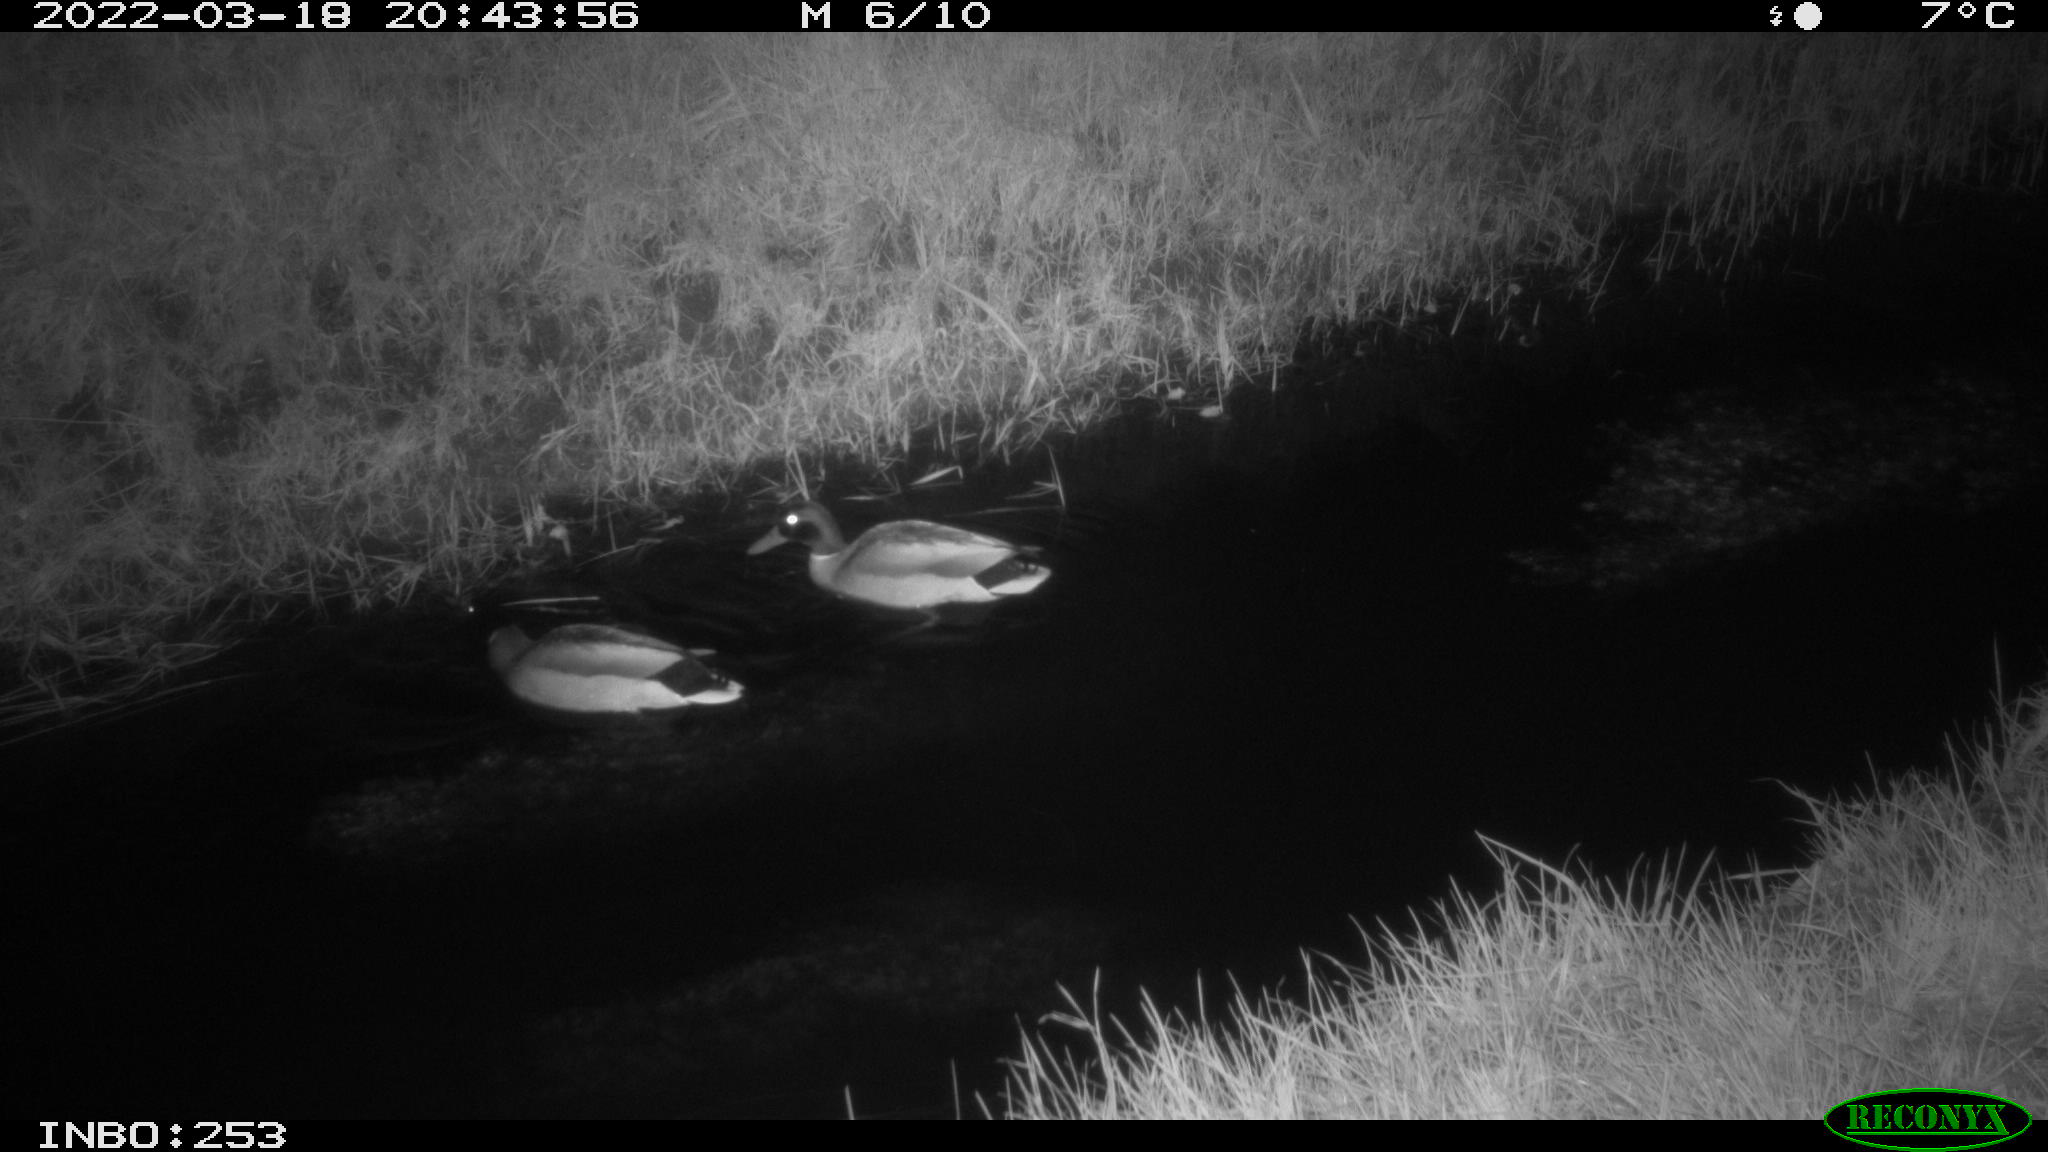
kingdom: Animalia
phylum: Chordata
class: Aves
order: Anseriformes
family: Anatidae
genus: Anas
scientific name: Anas platyrhynchos
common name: Mallard
